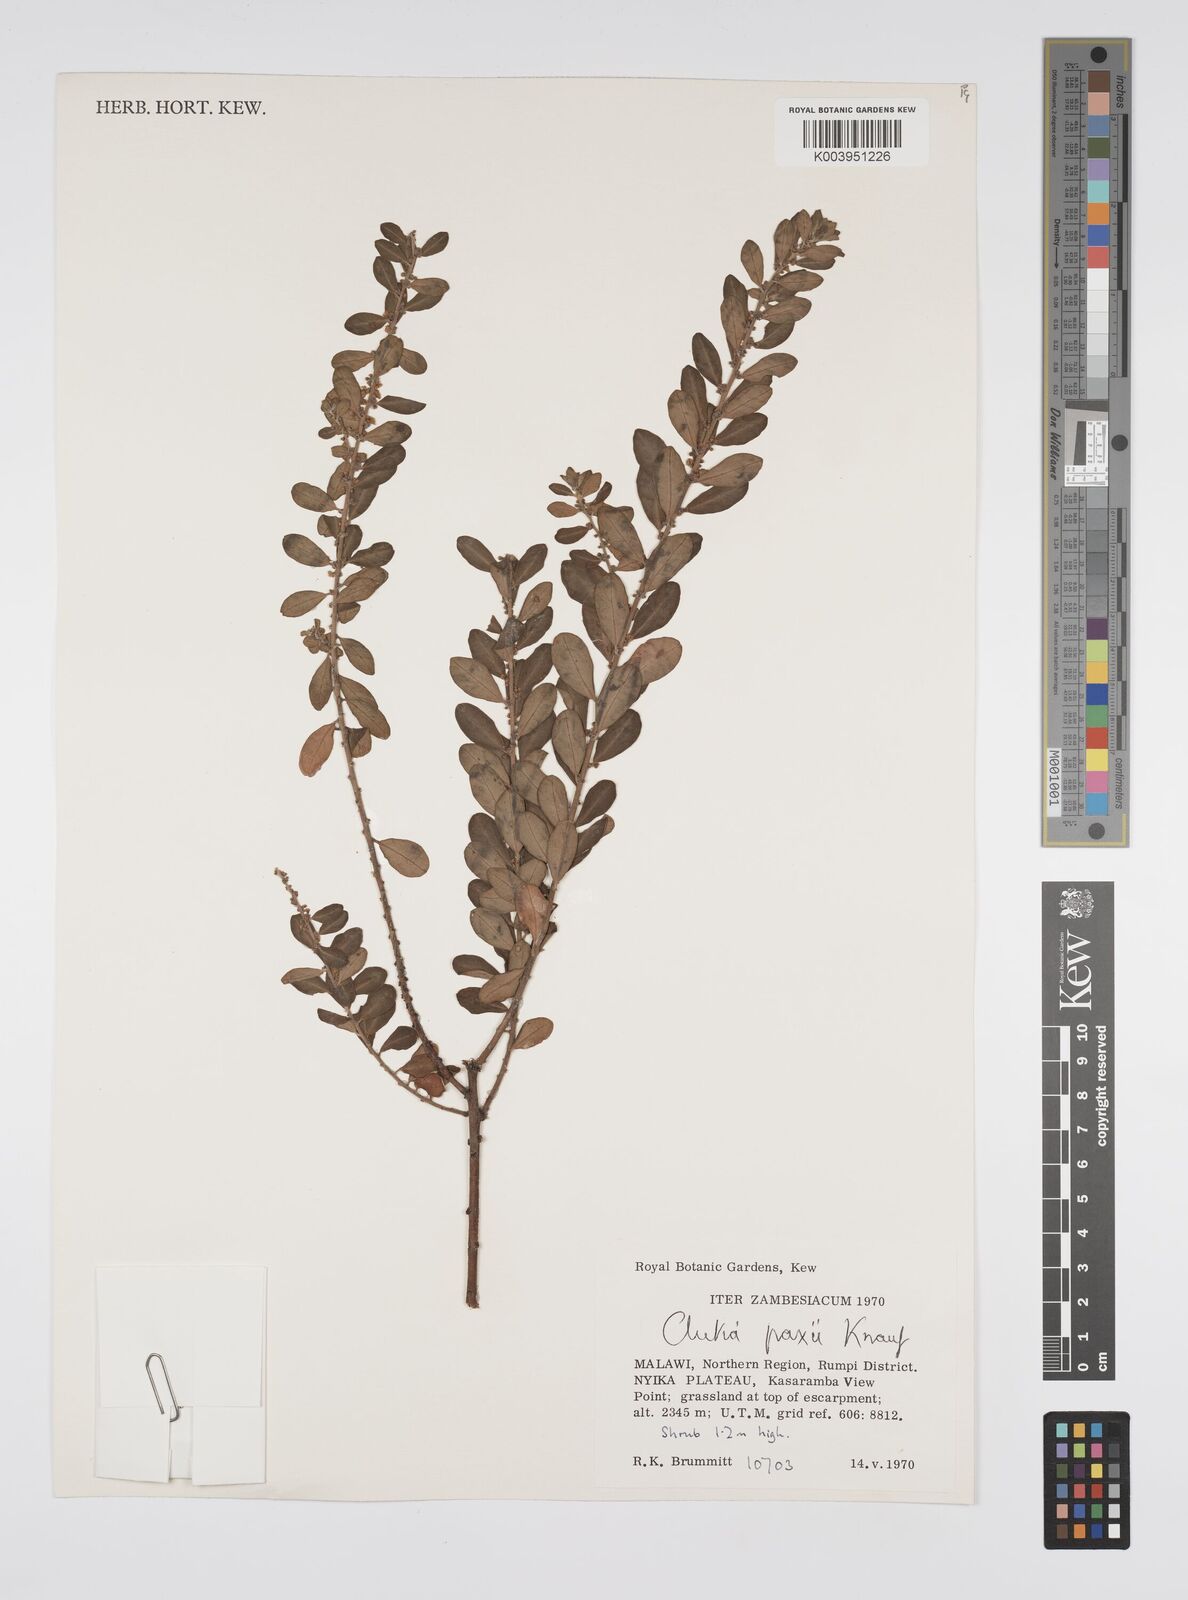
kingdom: Plantae
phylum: Tracheophyta
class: Magnoliopsida
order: Malpighiales
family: Peraceae
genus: Clutia
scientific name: Clutia paxii
